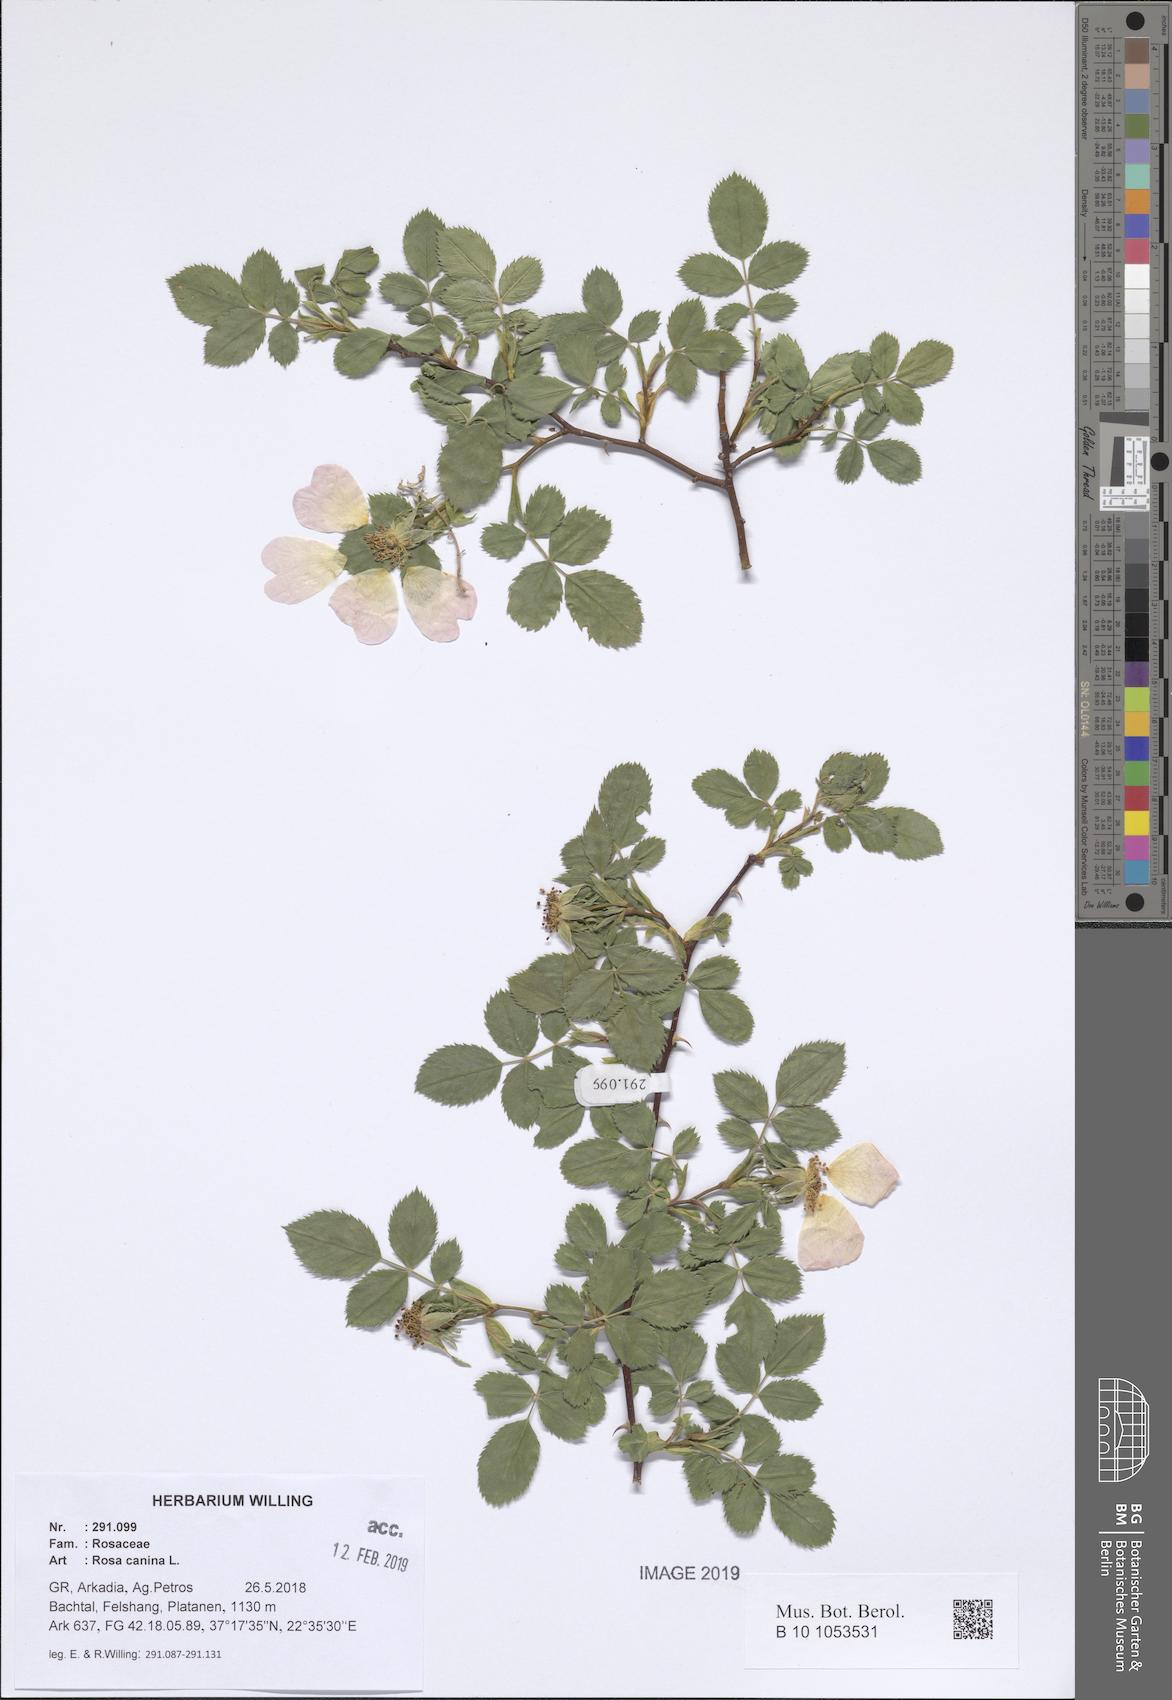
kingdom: Plantae
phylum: Tracheophyta
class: Magnoliopsida
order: Rosales
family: Rosaceae
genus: Rosa
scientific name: Rosa canina
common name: Dog rose
